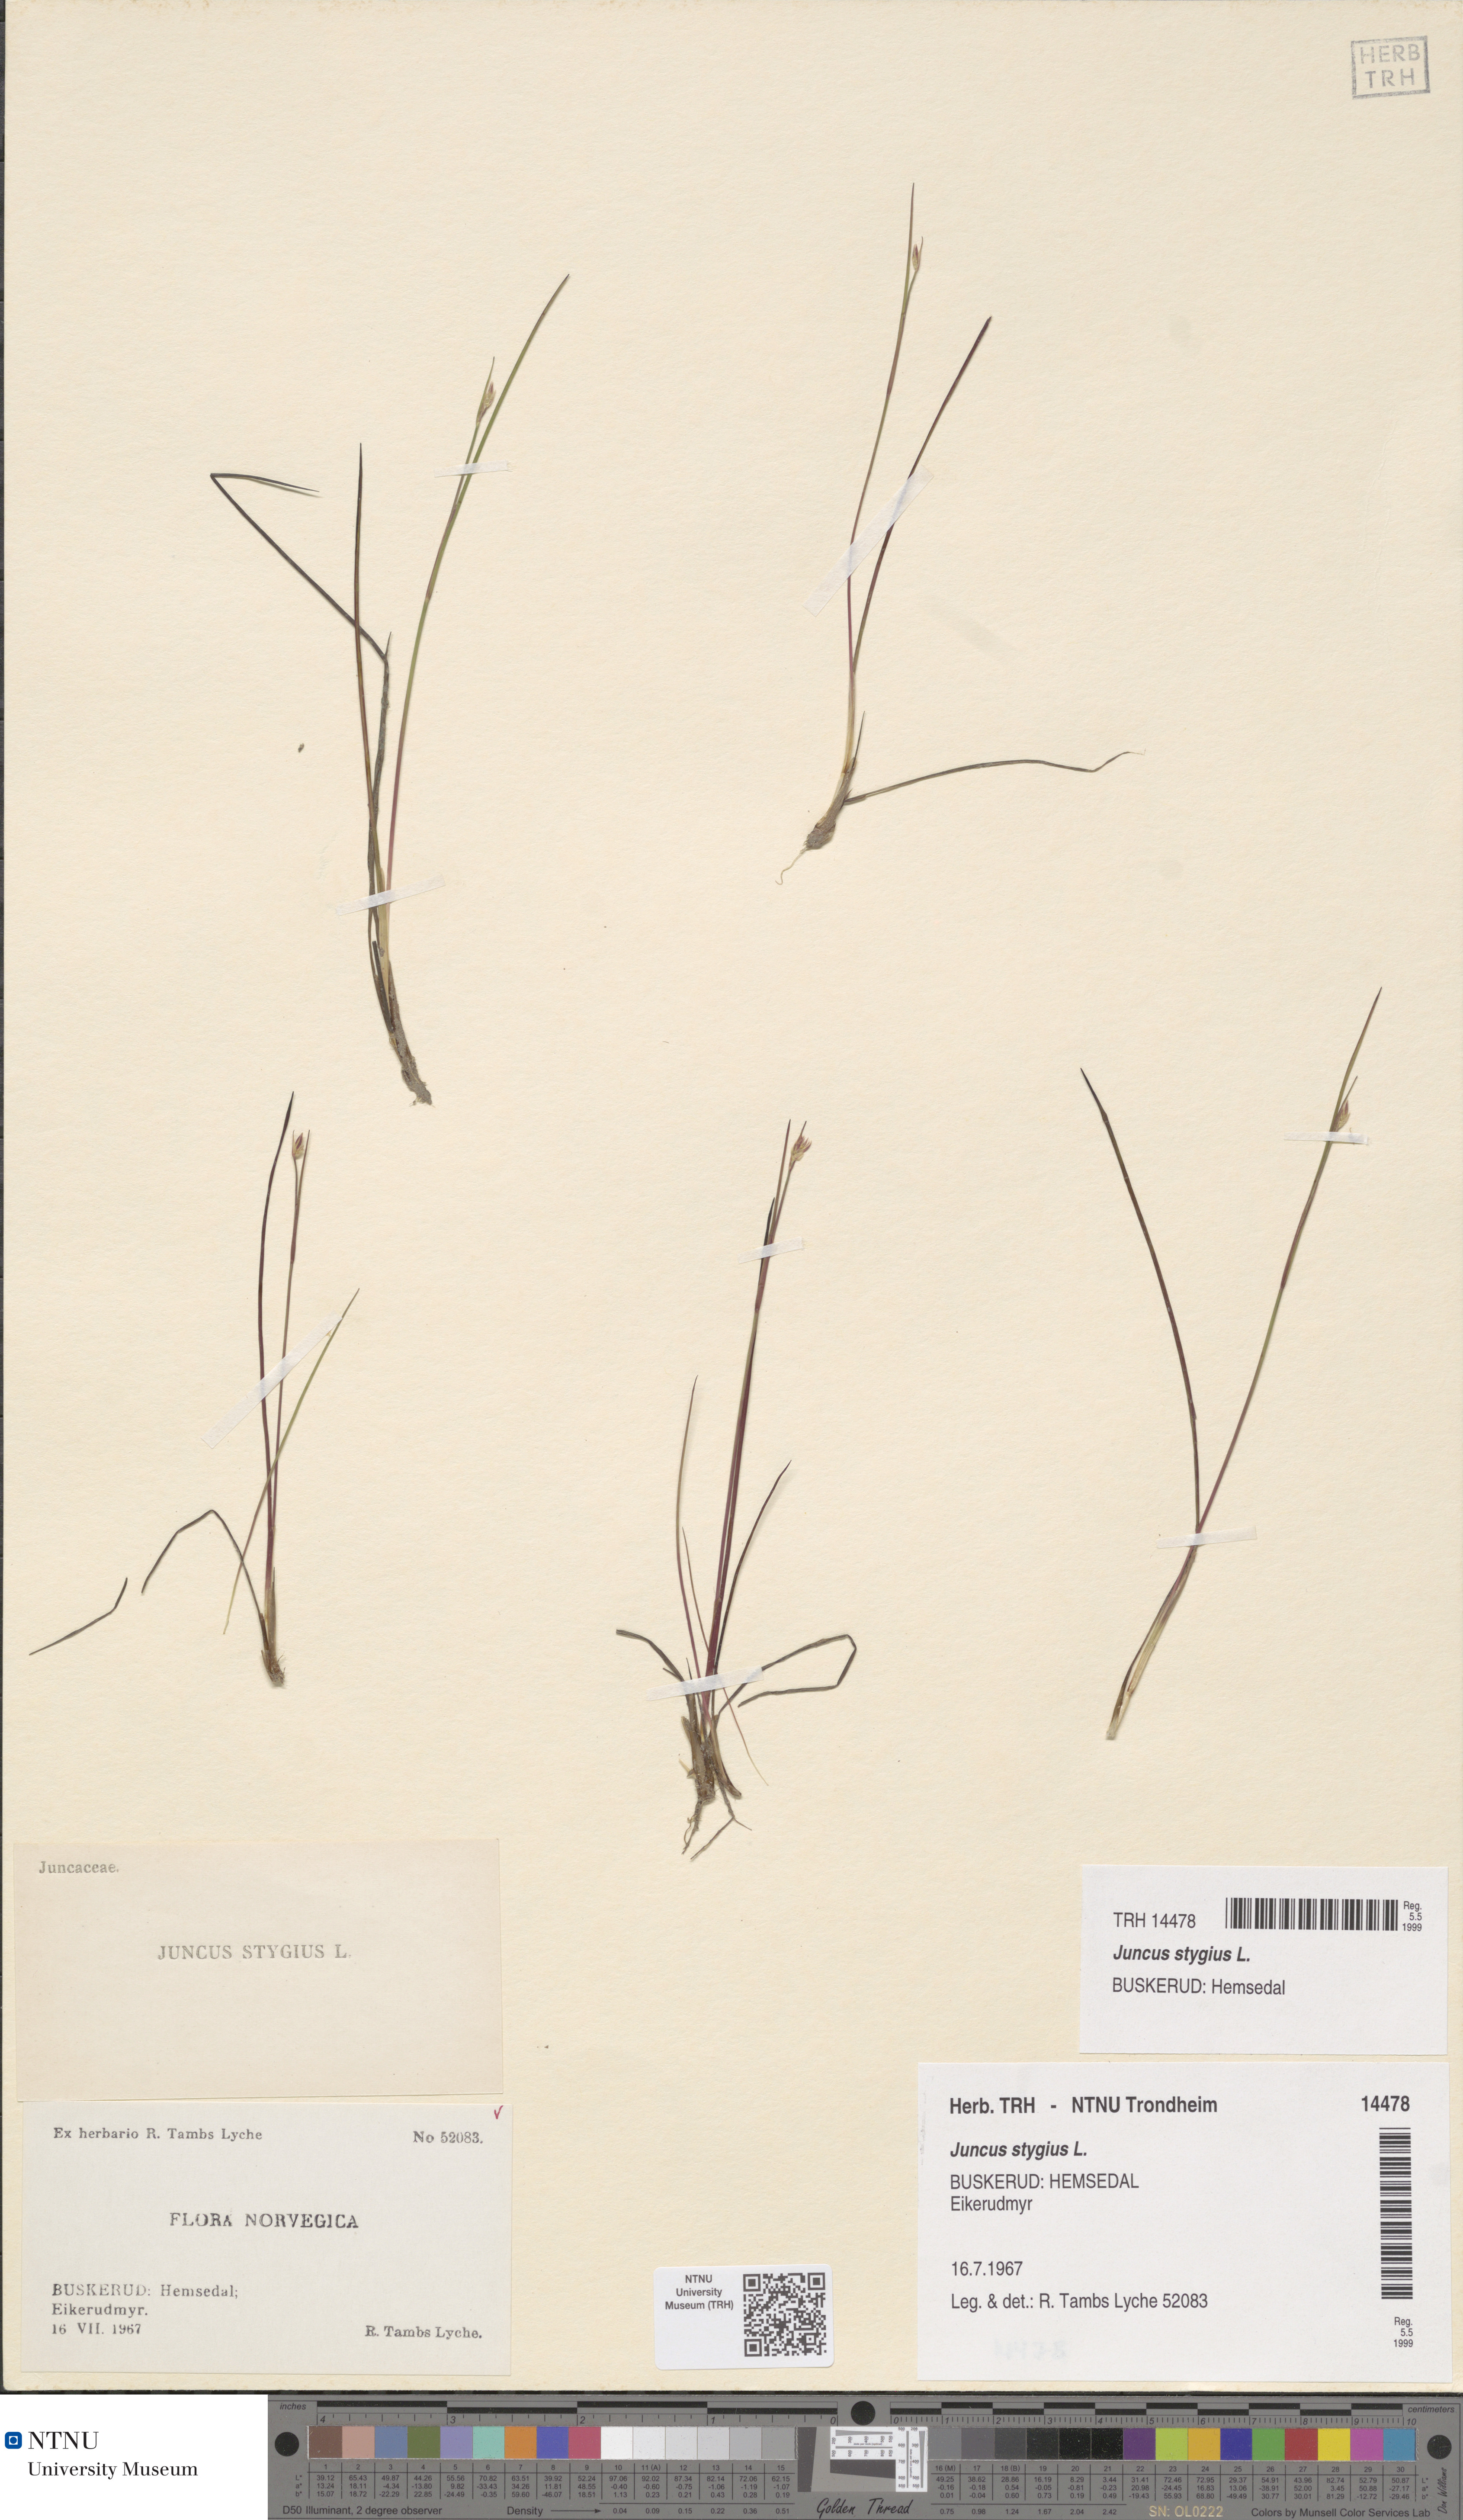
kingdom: Plantae
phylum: Tracheophyta
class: Liliopsida
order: Poales
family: Juncaceae
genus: Juncus
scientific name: Juncus stygius
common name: Bog rush
